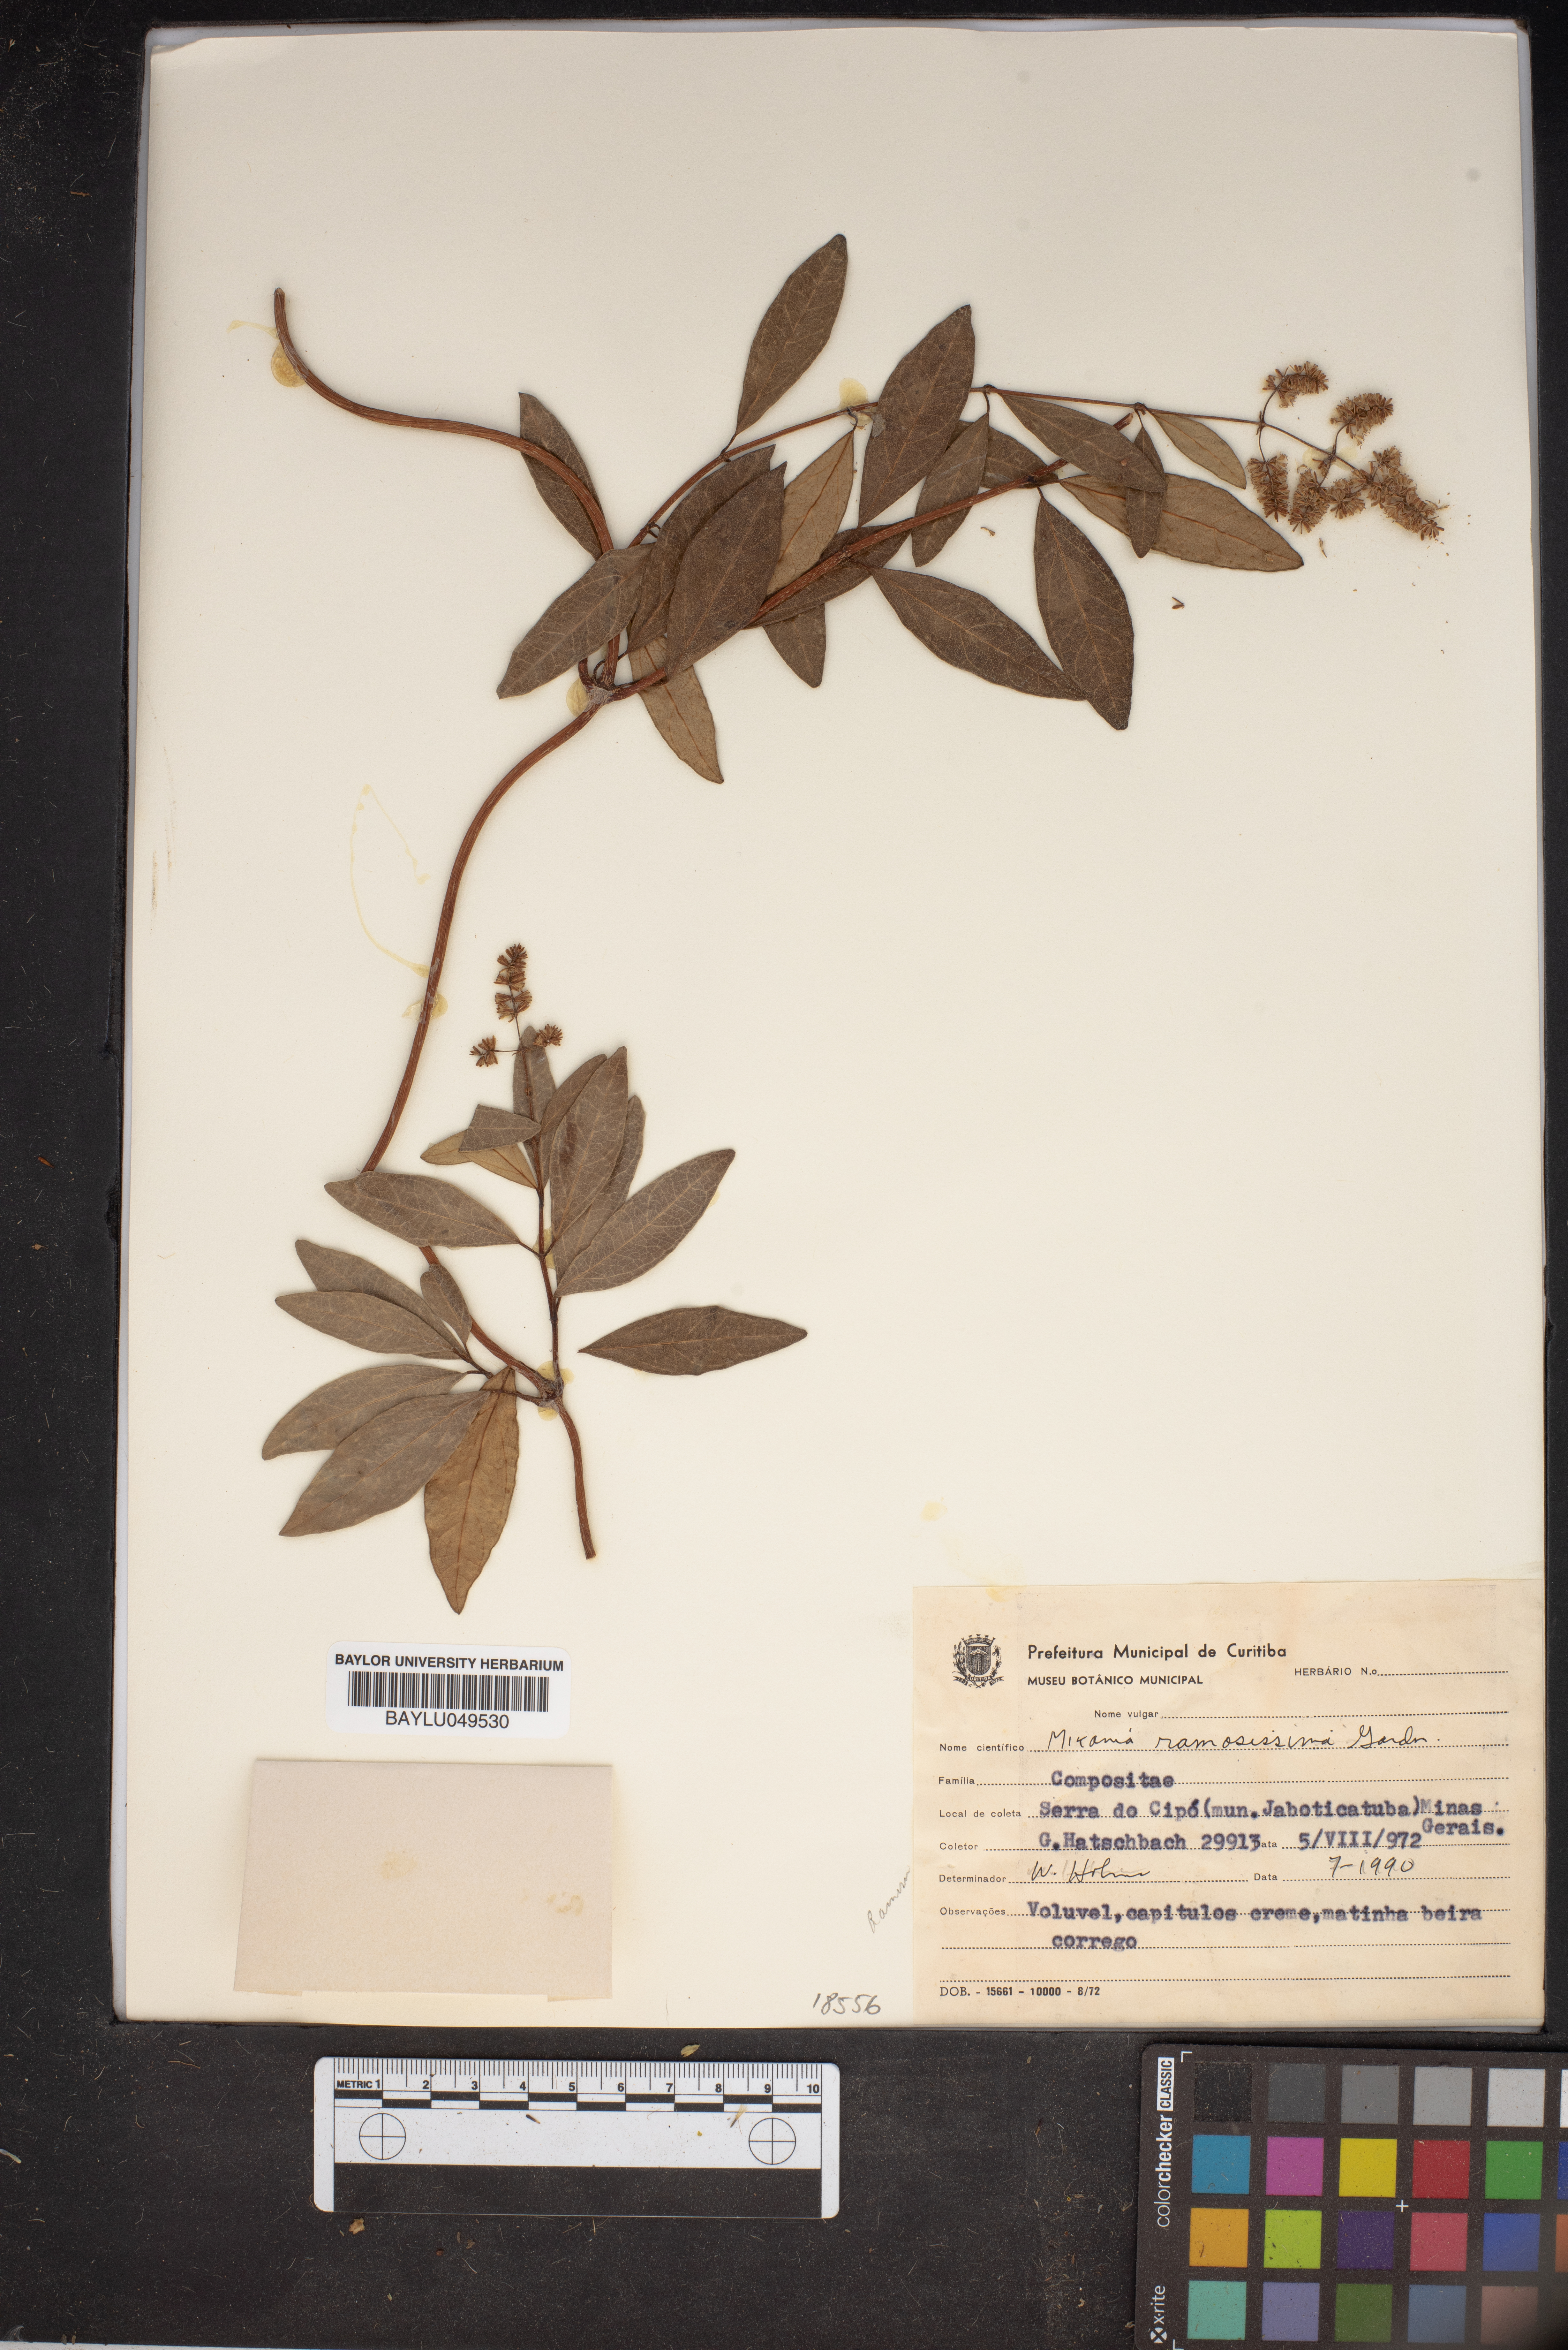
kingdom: Plantae
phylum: Tracheophyta
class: Magnoliopsida
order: Asterales
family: Asteraceae
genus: Mikania
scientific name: Mikania ramosissima
